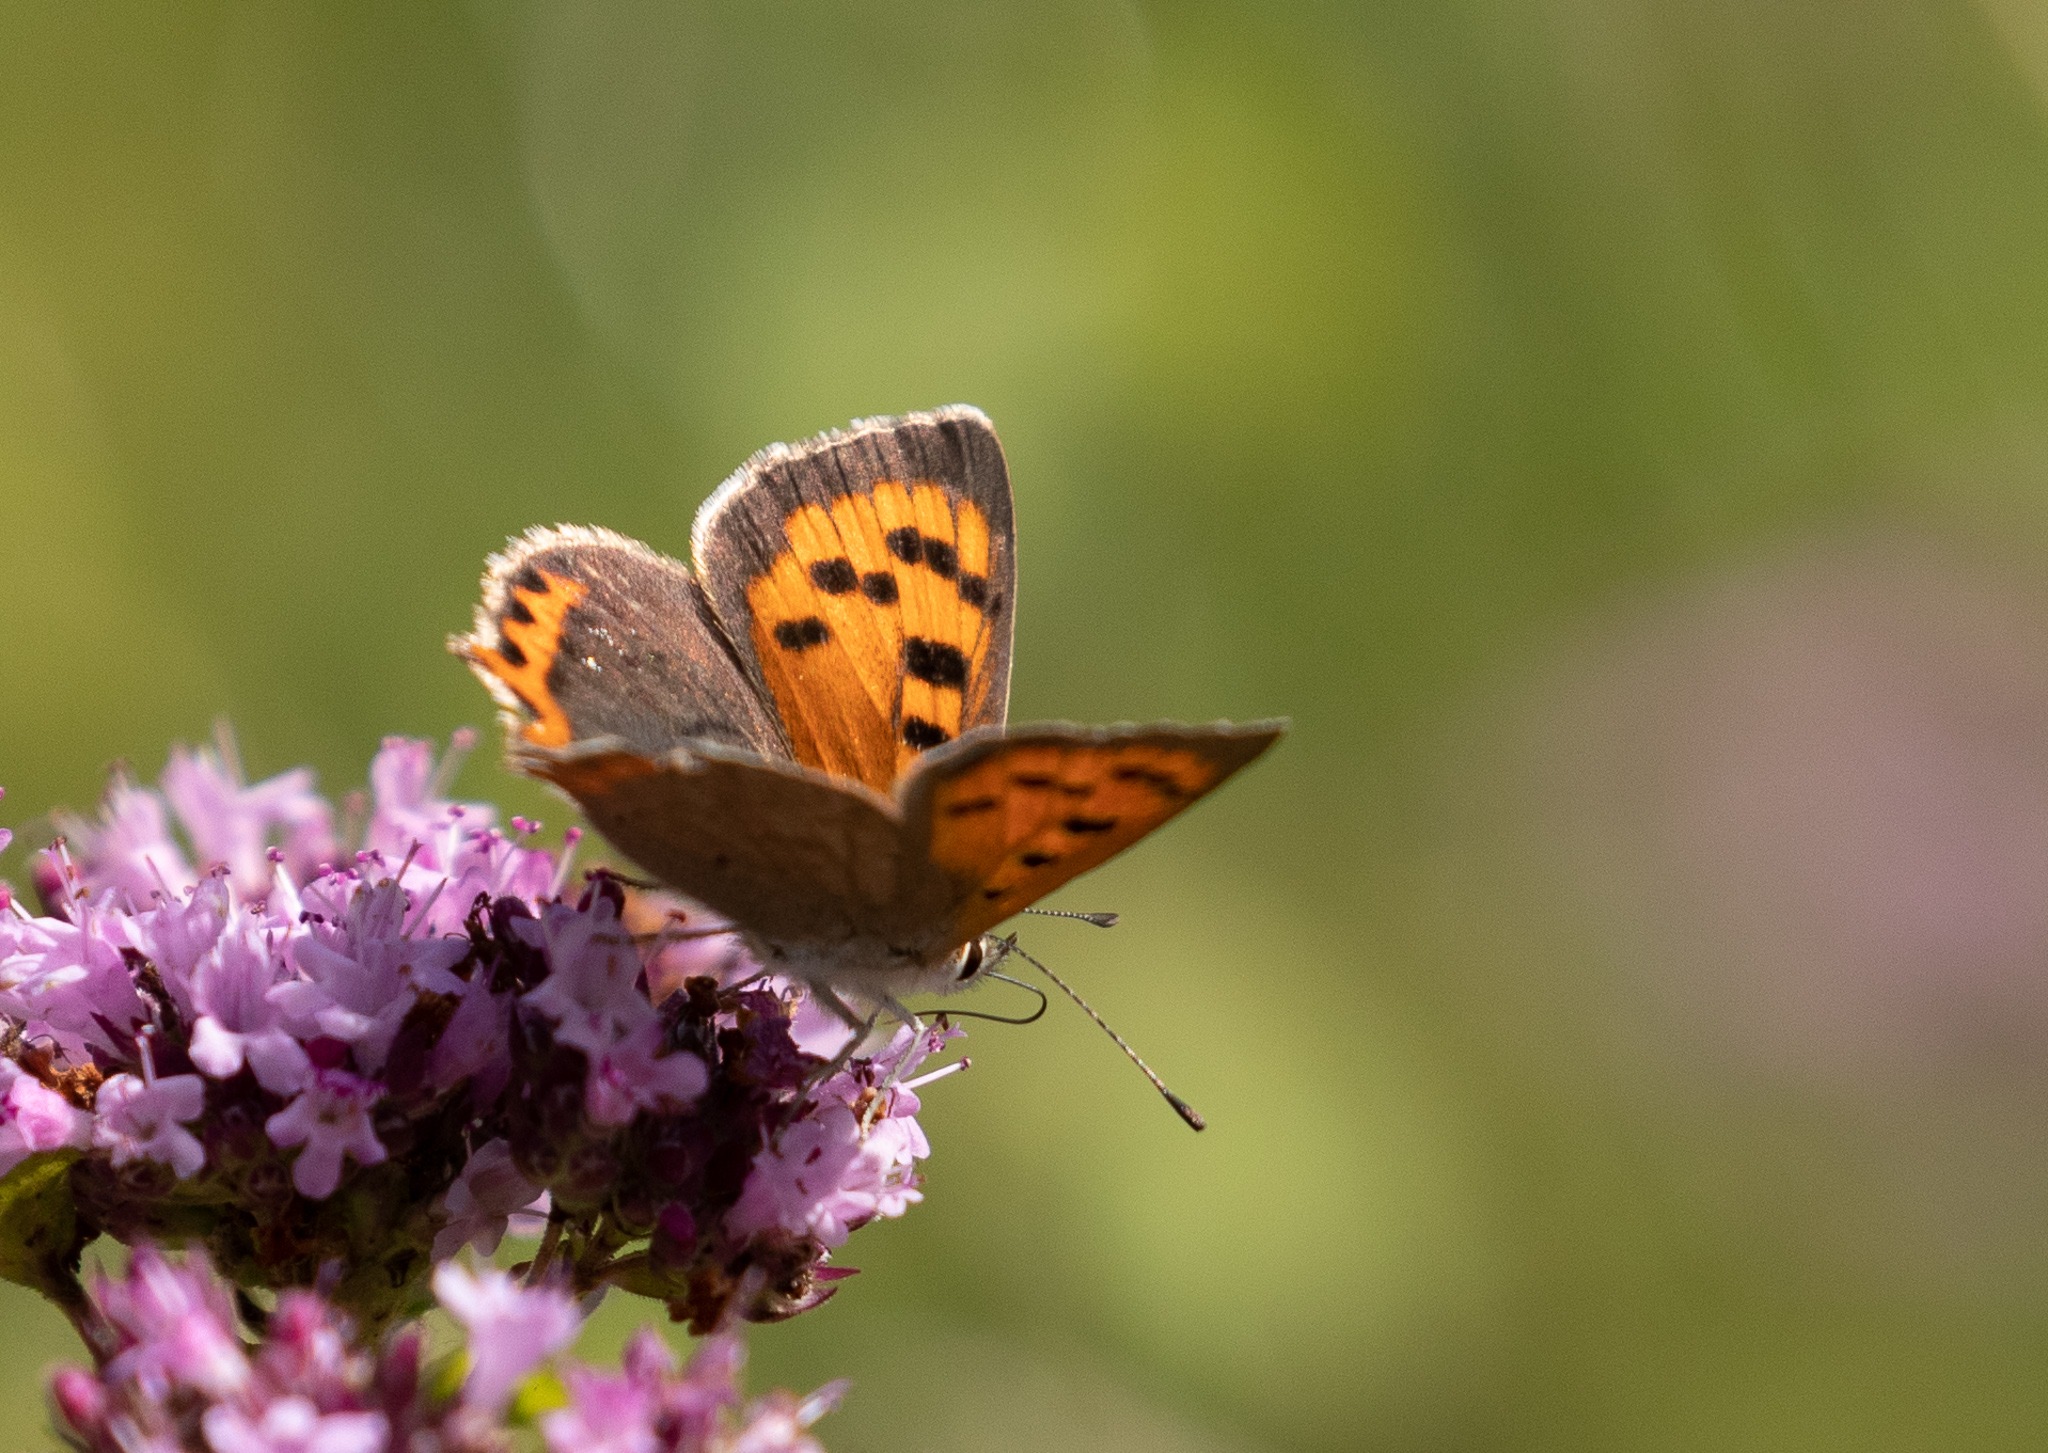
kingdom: Animalia
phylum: Arthropoda
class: Insecta
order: Lepidoptera
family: Lycaenidae
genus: Lycaena
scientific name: Lycaena phlaeas
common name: Lille ildfugl
